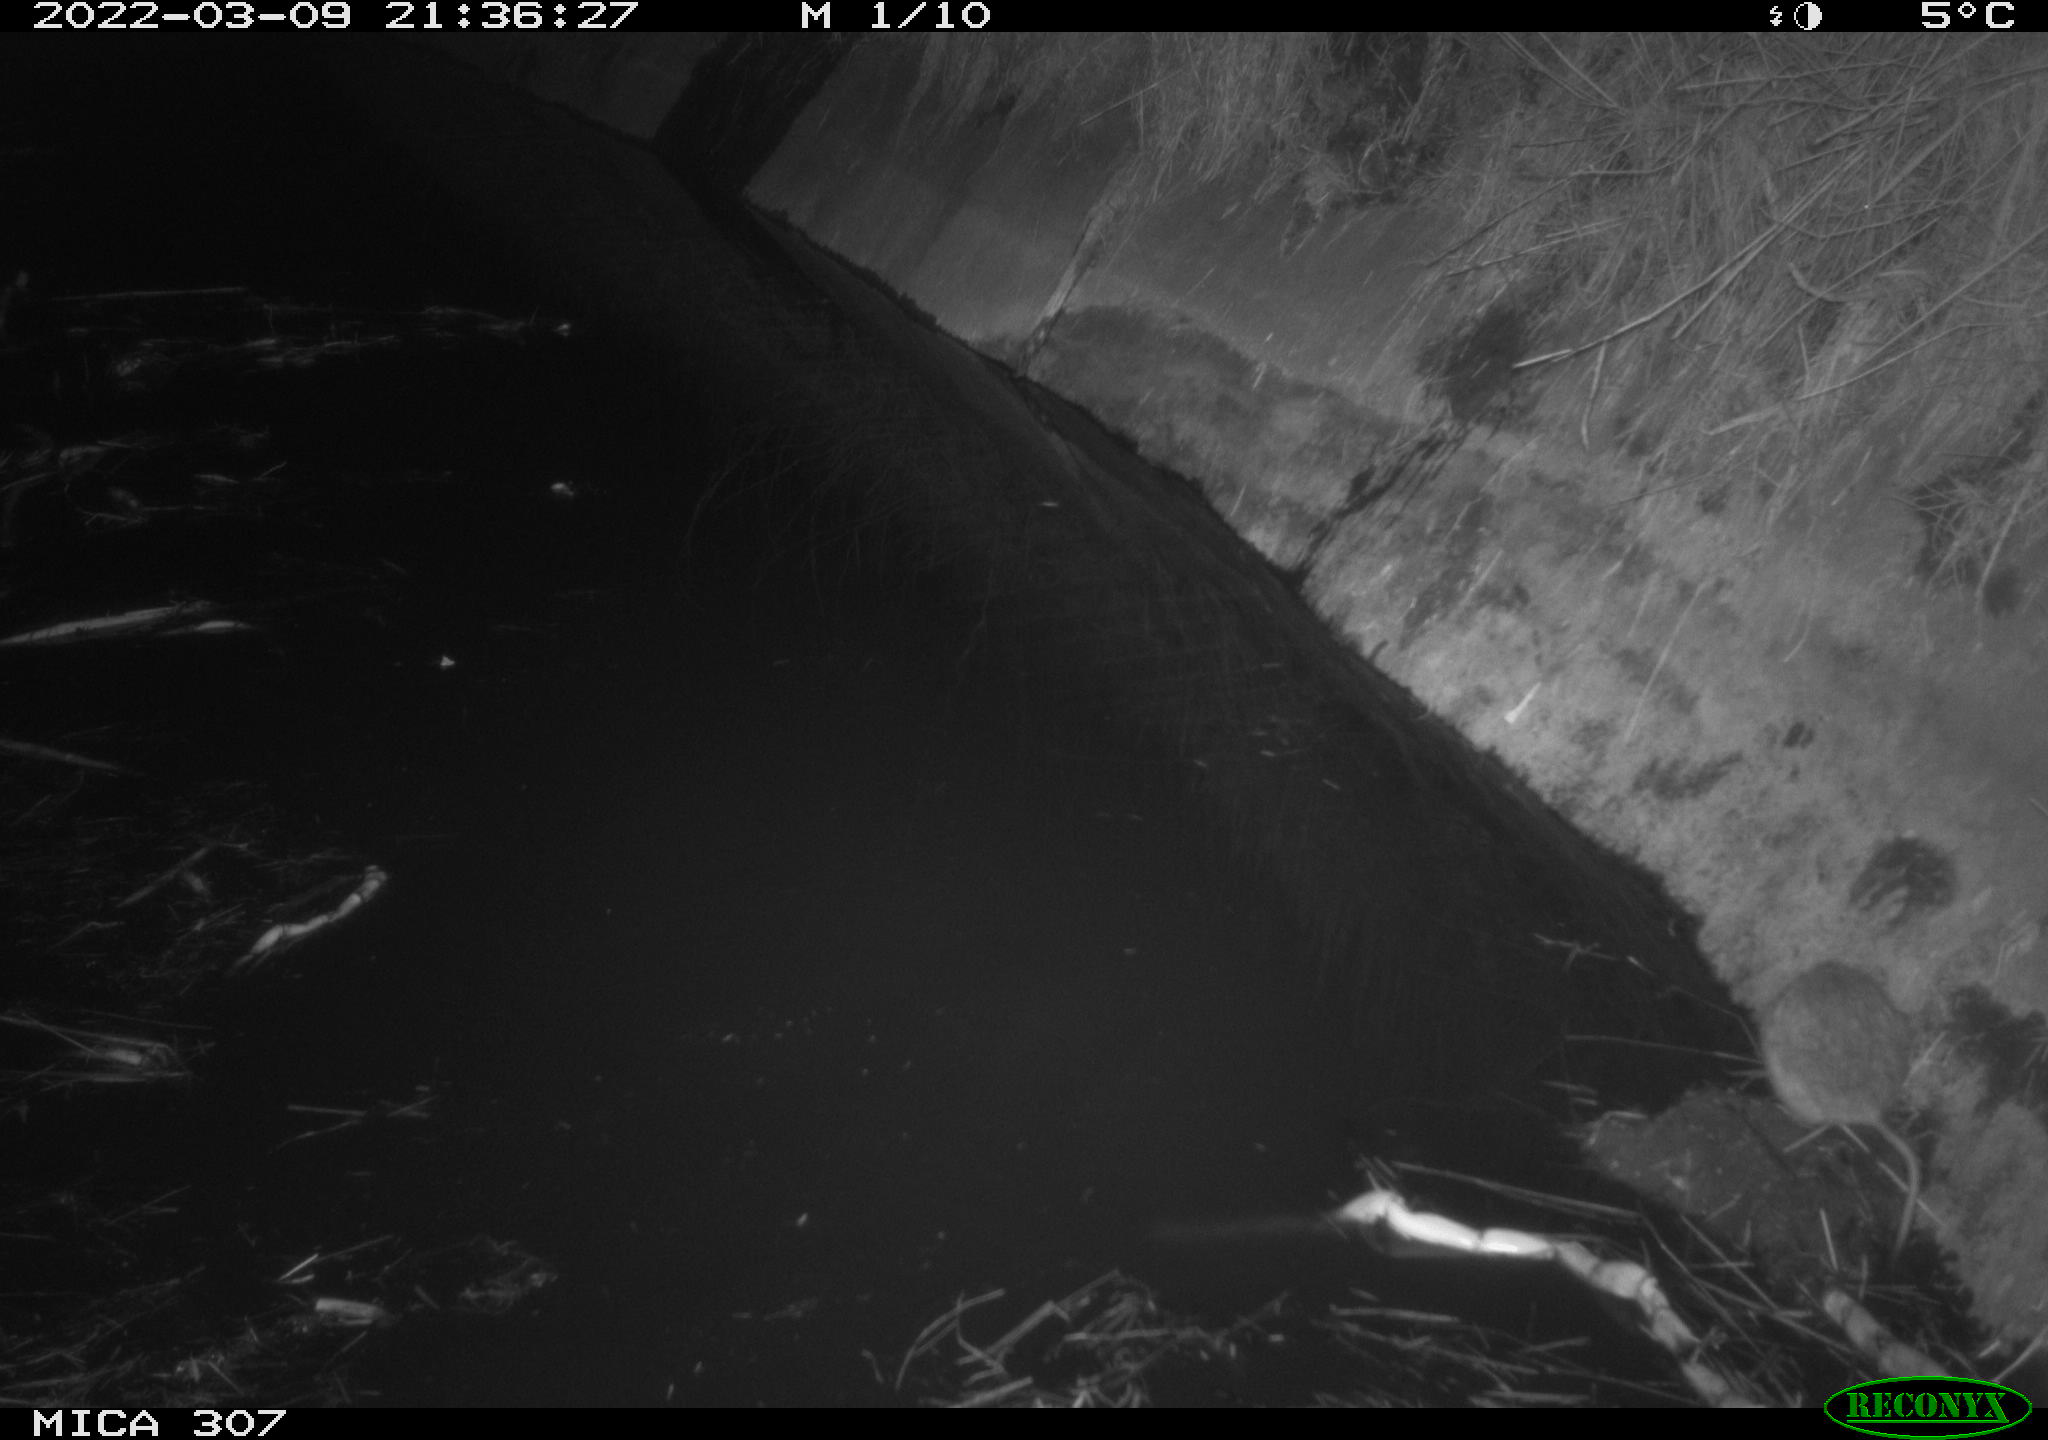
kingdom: Animalia
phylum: Chordata
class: Mammalia
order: Rodentia
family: Muridae
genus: Rattus
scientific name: Rattus norvegicus
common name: Brown rat
